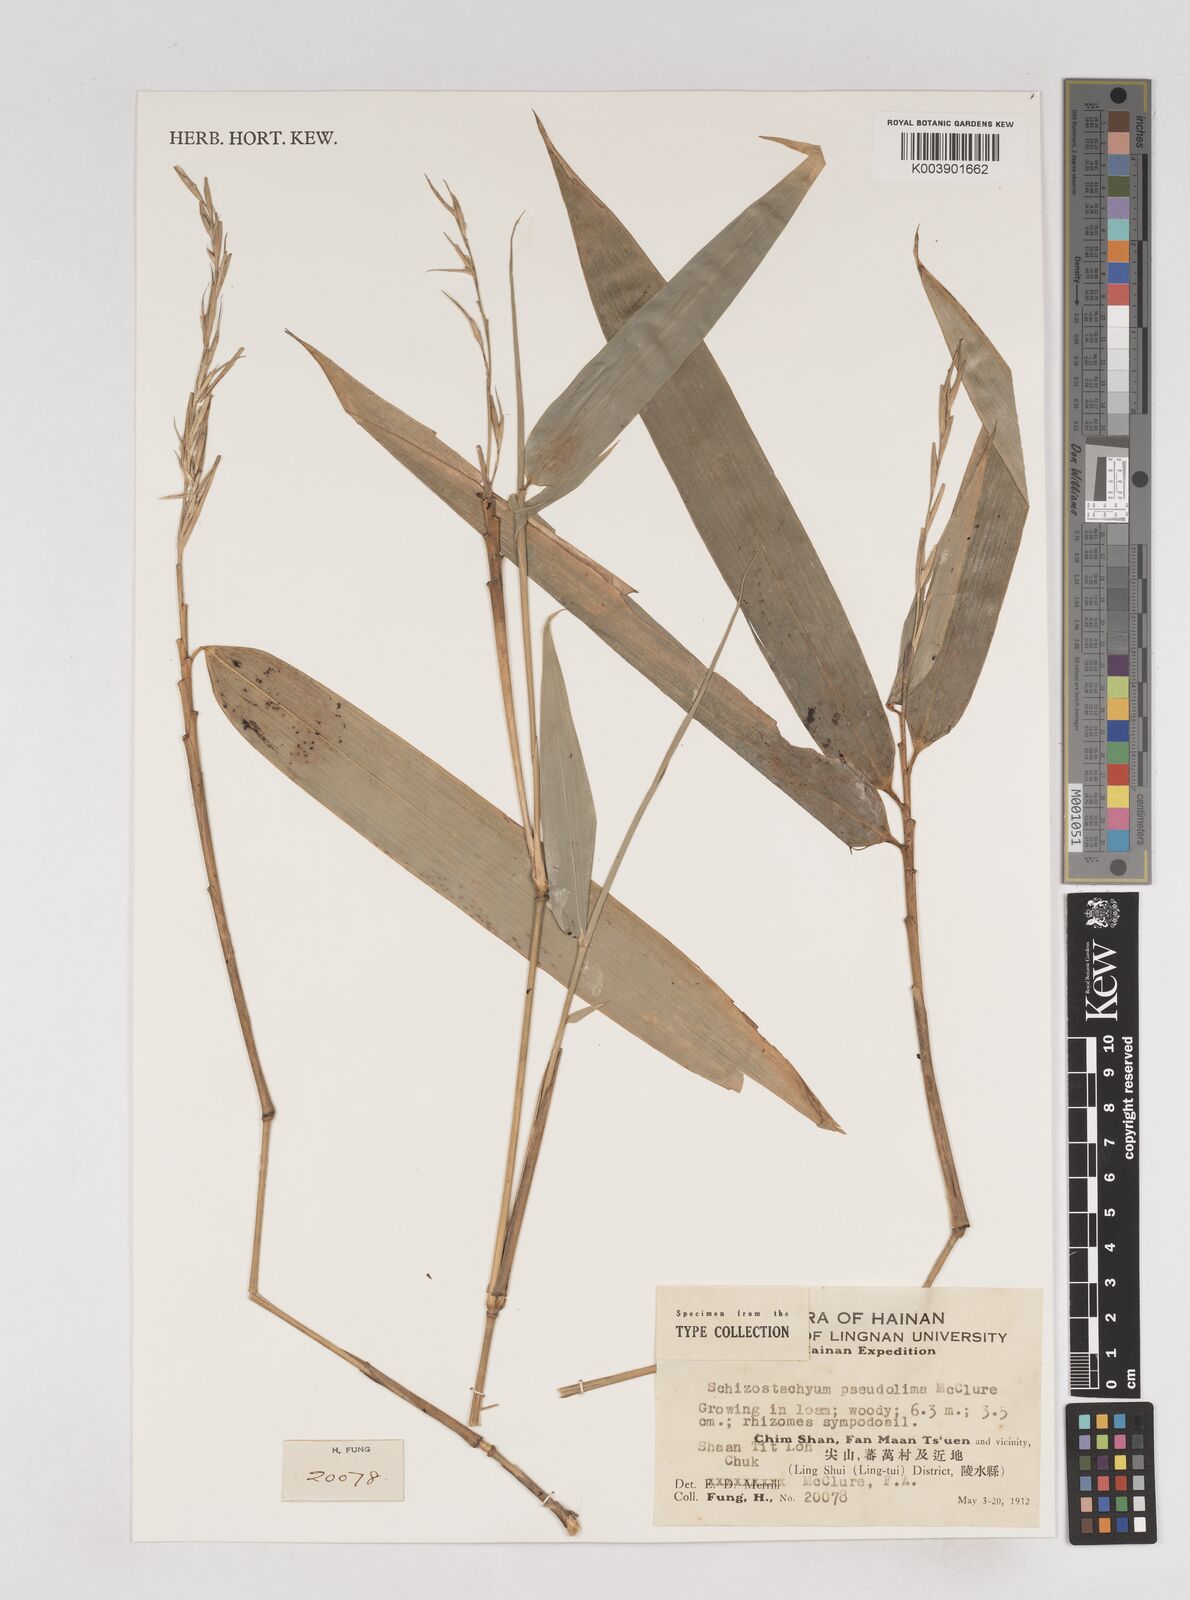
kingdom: Plantae
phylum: Tracheophyta
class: Liliopsida
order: Poales
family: Poaceae
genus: Schizostachyum
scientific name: Schizostachyum pseudolima
